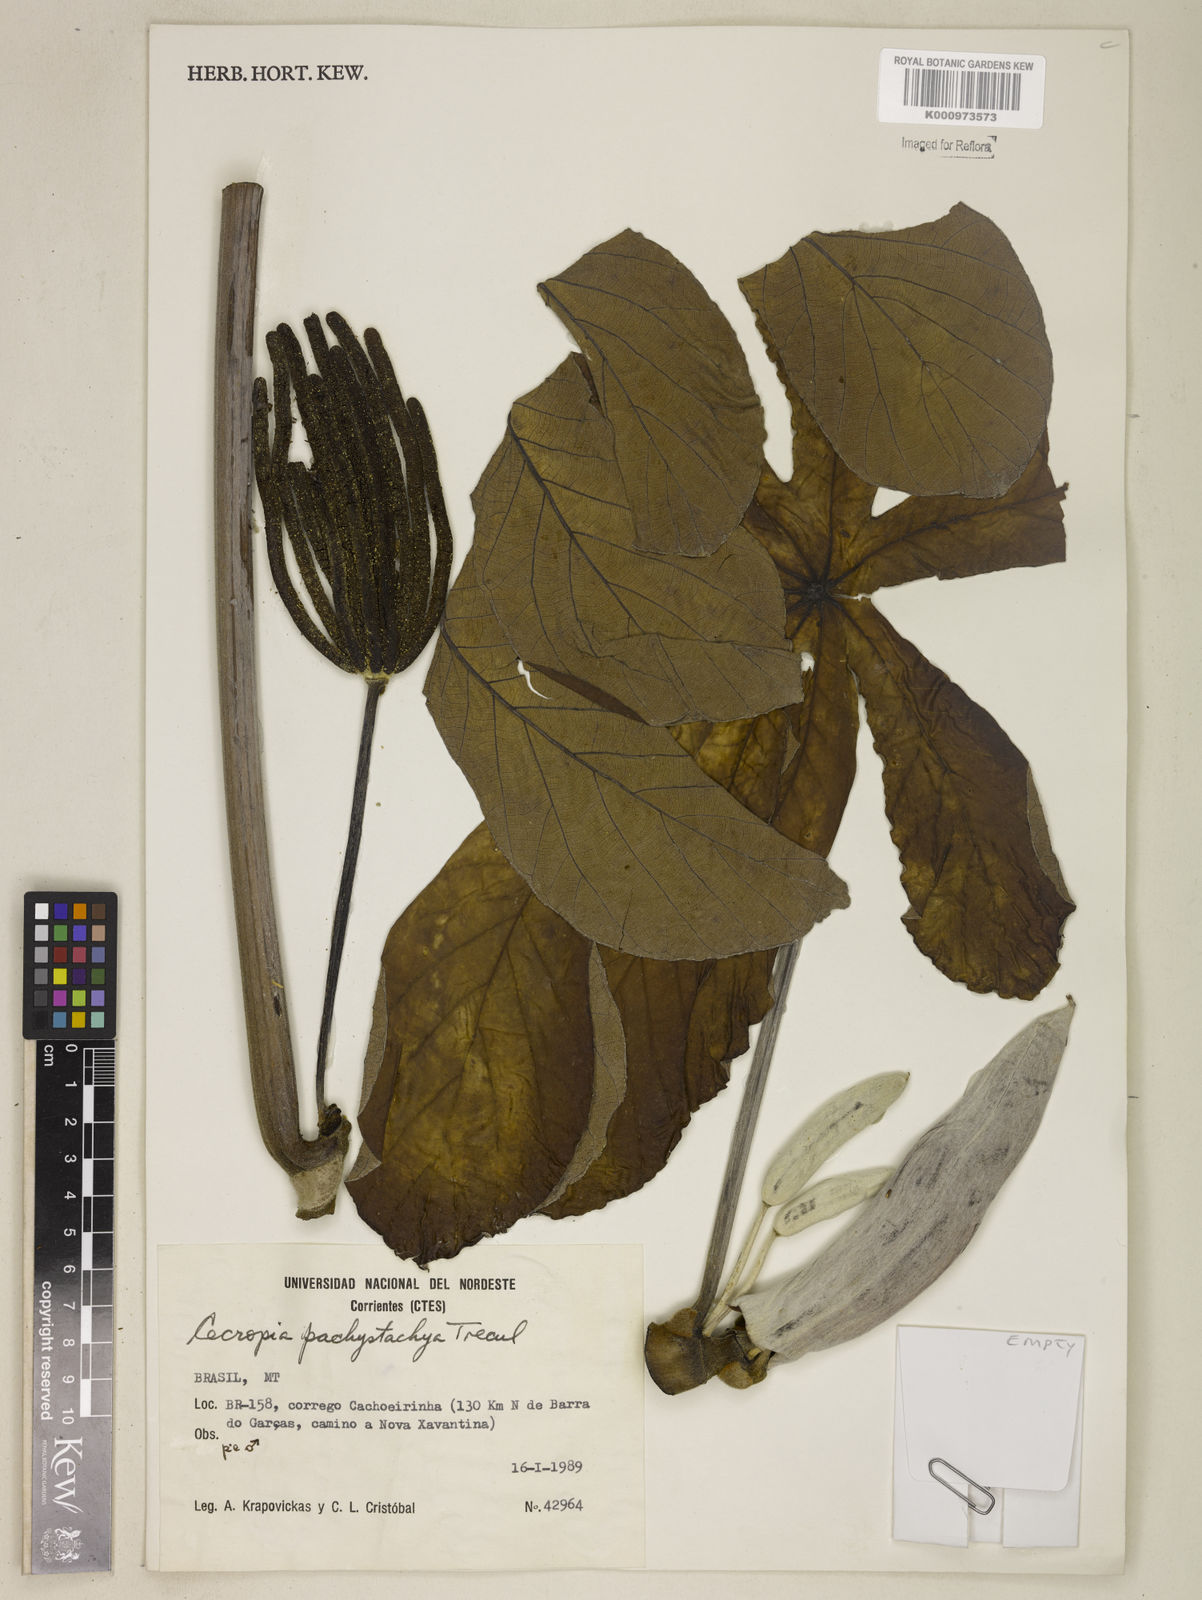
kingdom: Plantae
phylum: Tracheophyta
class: Magnoliopsida
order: Rosales
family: Urticaceae
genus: Cecropia
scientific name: Cecropia
